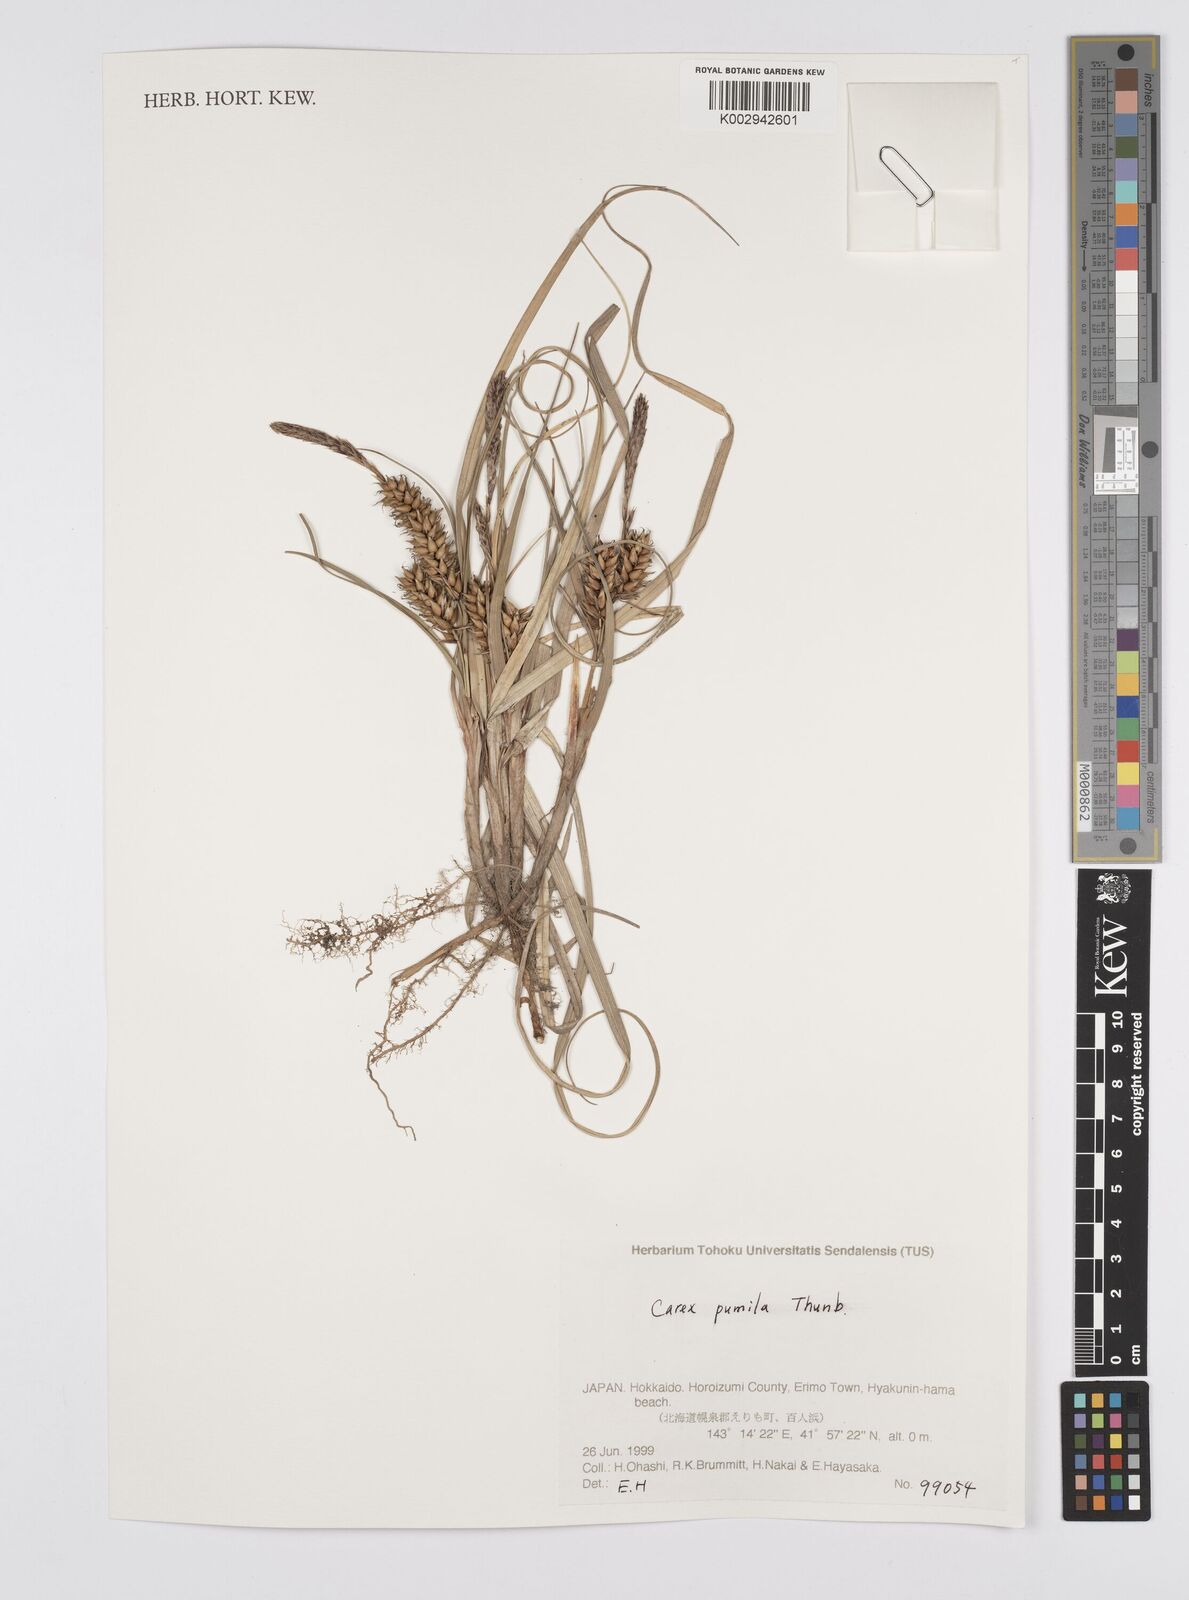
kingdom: Plantae
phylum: Tracheophyta
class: Liliopsida
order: Poales
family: Cyperaceae
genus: Carex
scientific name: Carex pumila
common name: Dwarf sedge
